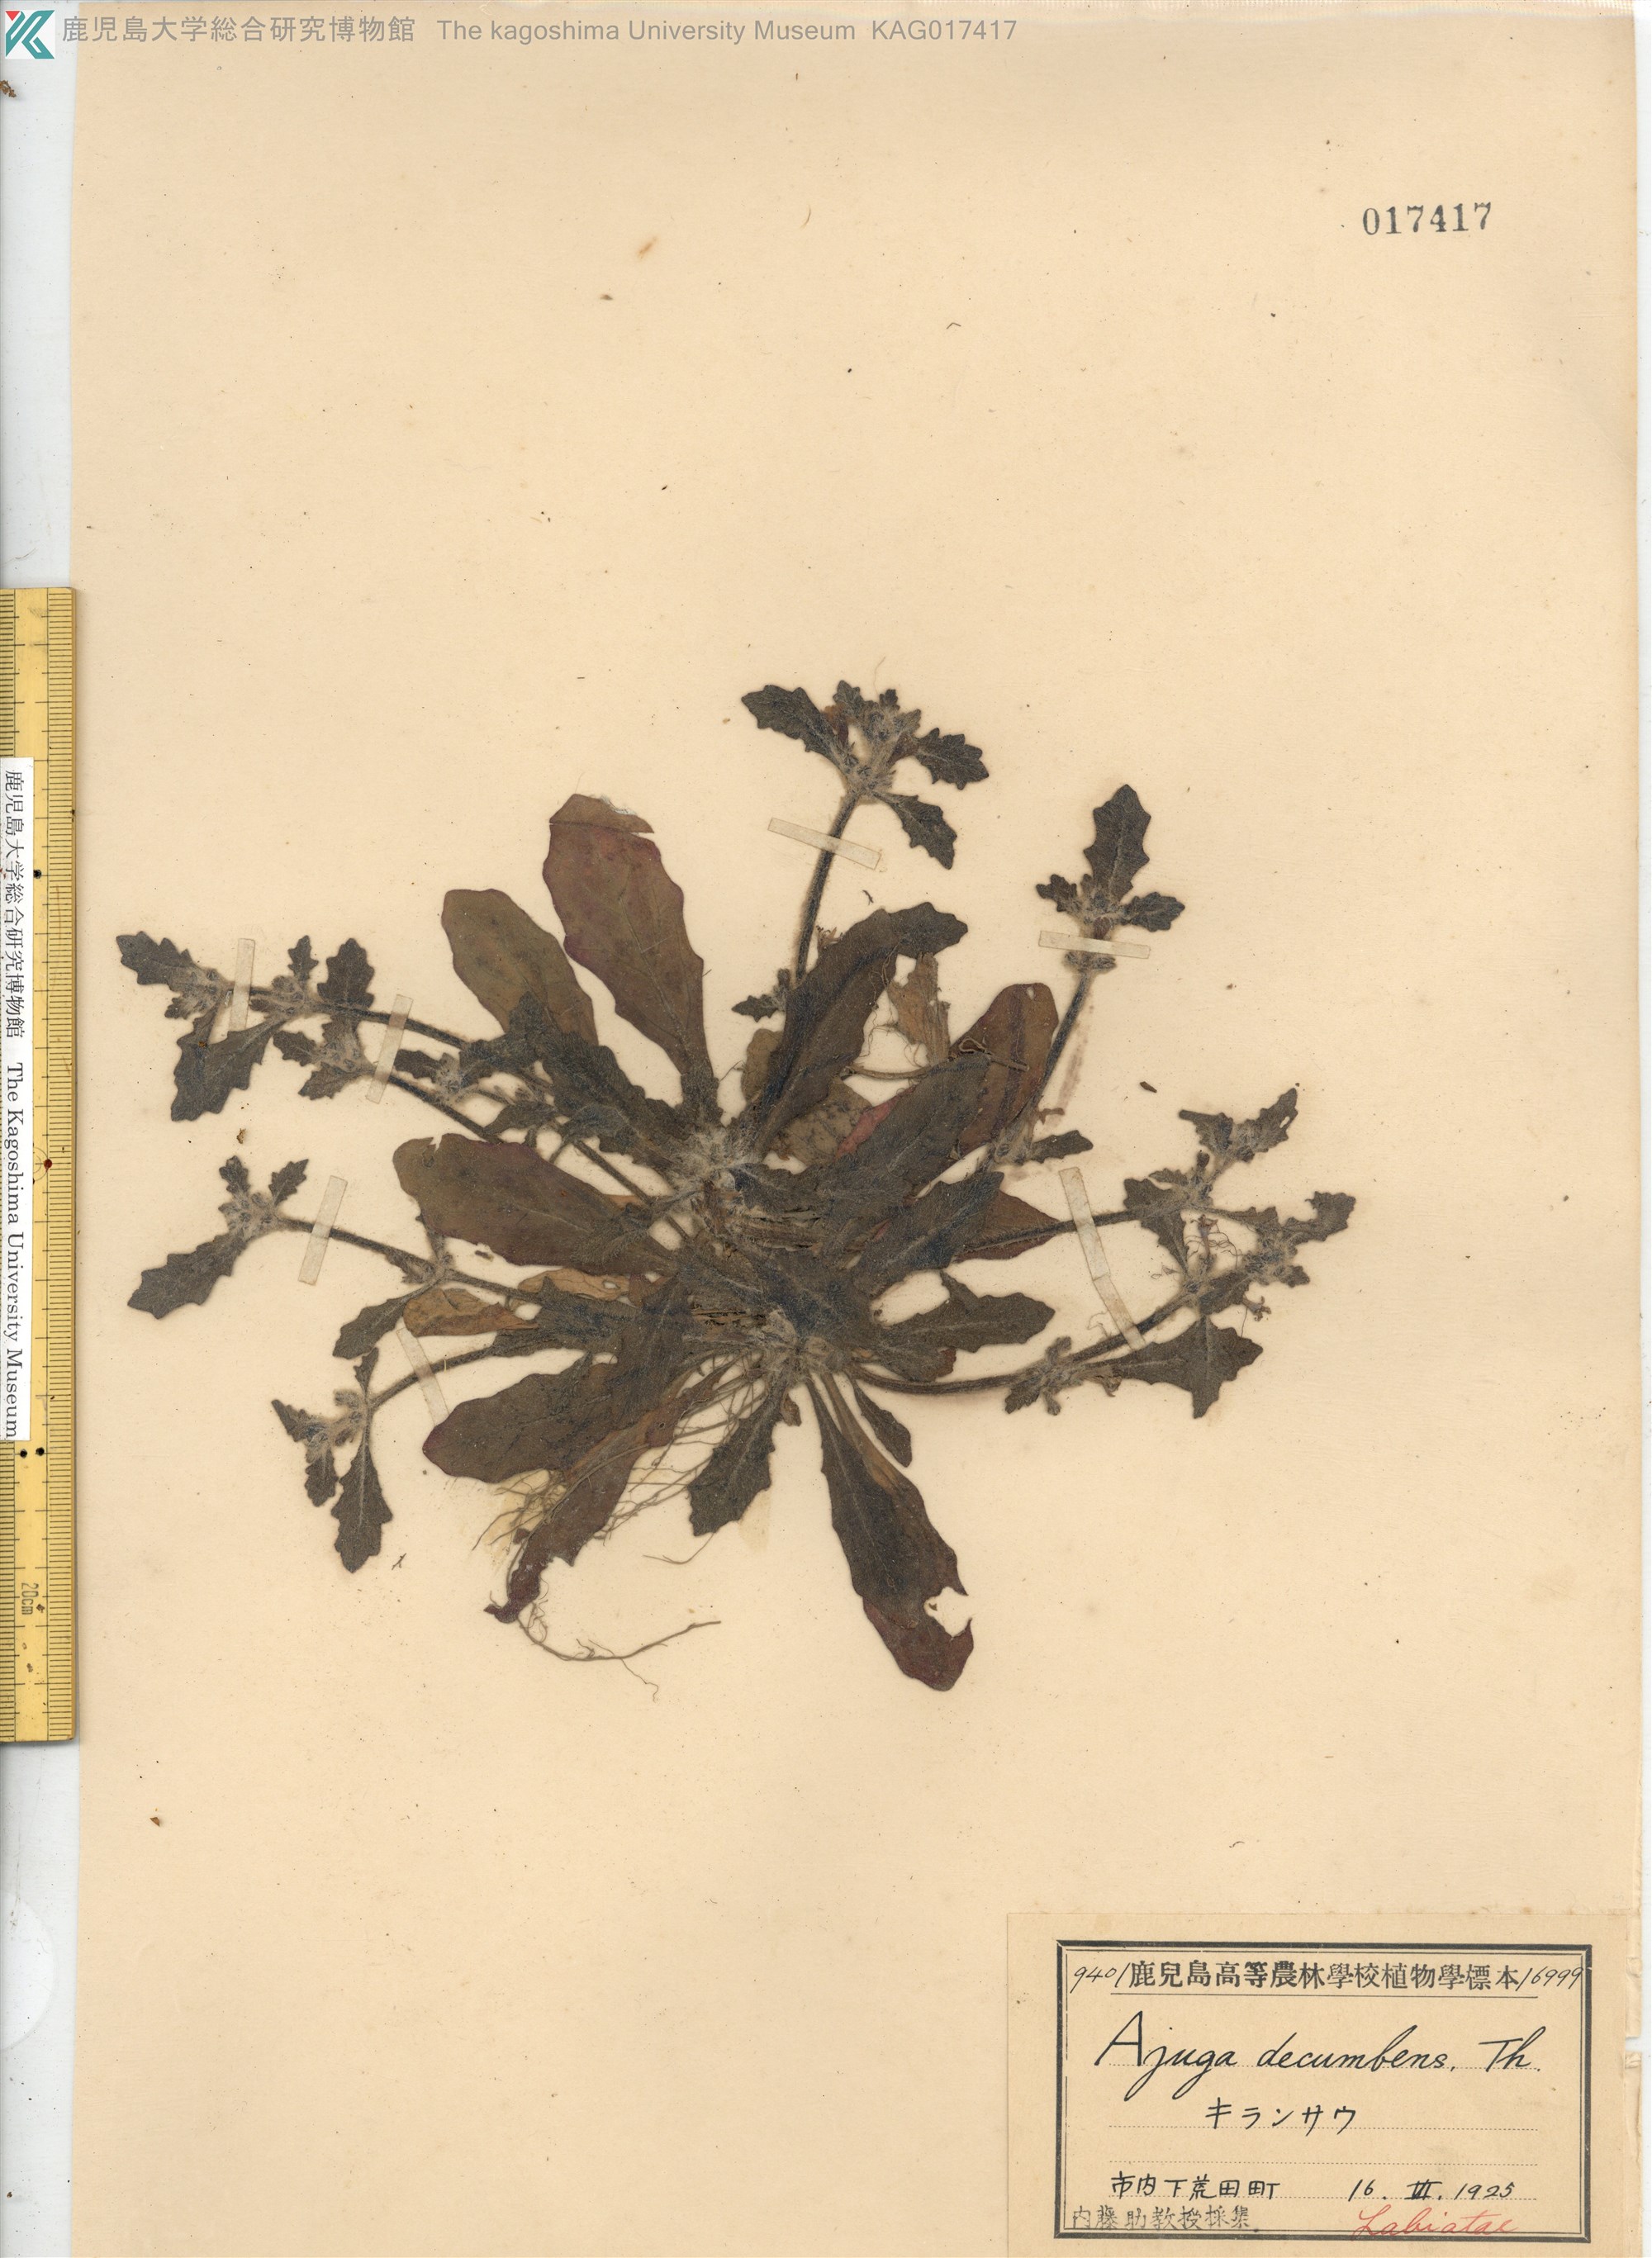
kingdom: Plantae
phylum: Tracheophyta
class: Magnoliopsida
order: Lamiales
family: Lamiaceae
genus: Ajuga
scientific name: Ajuga decumbens
